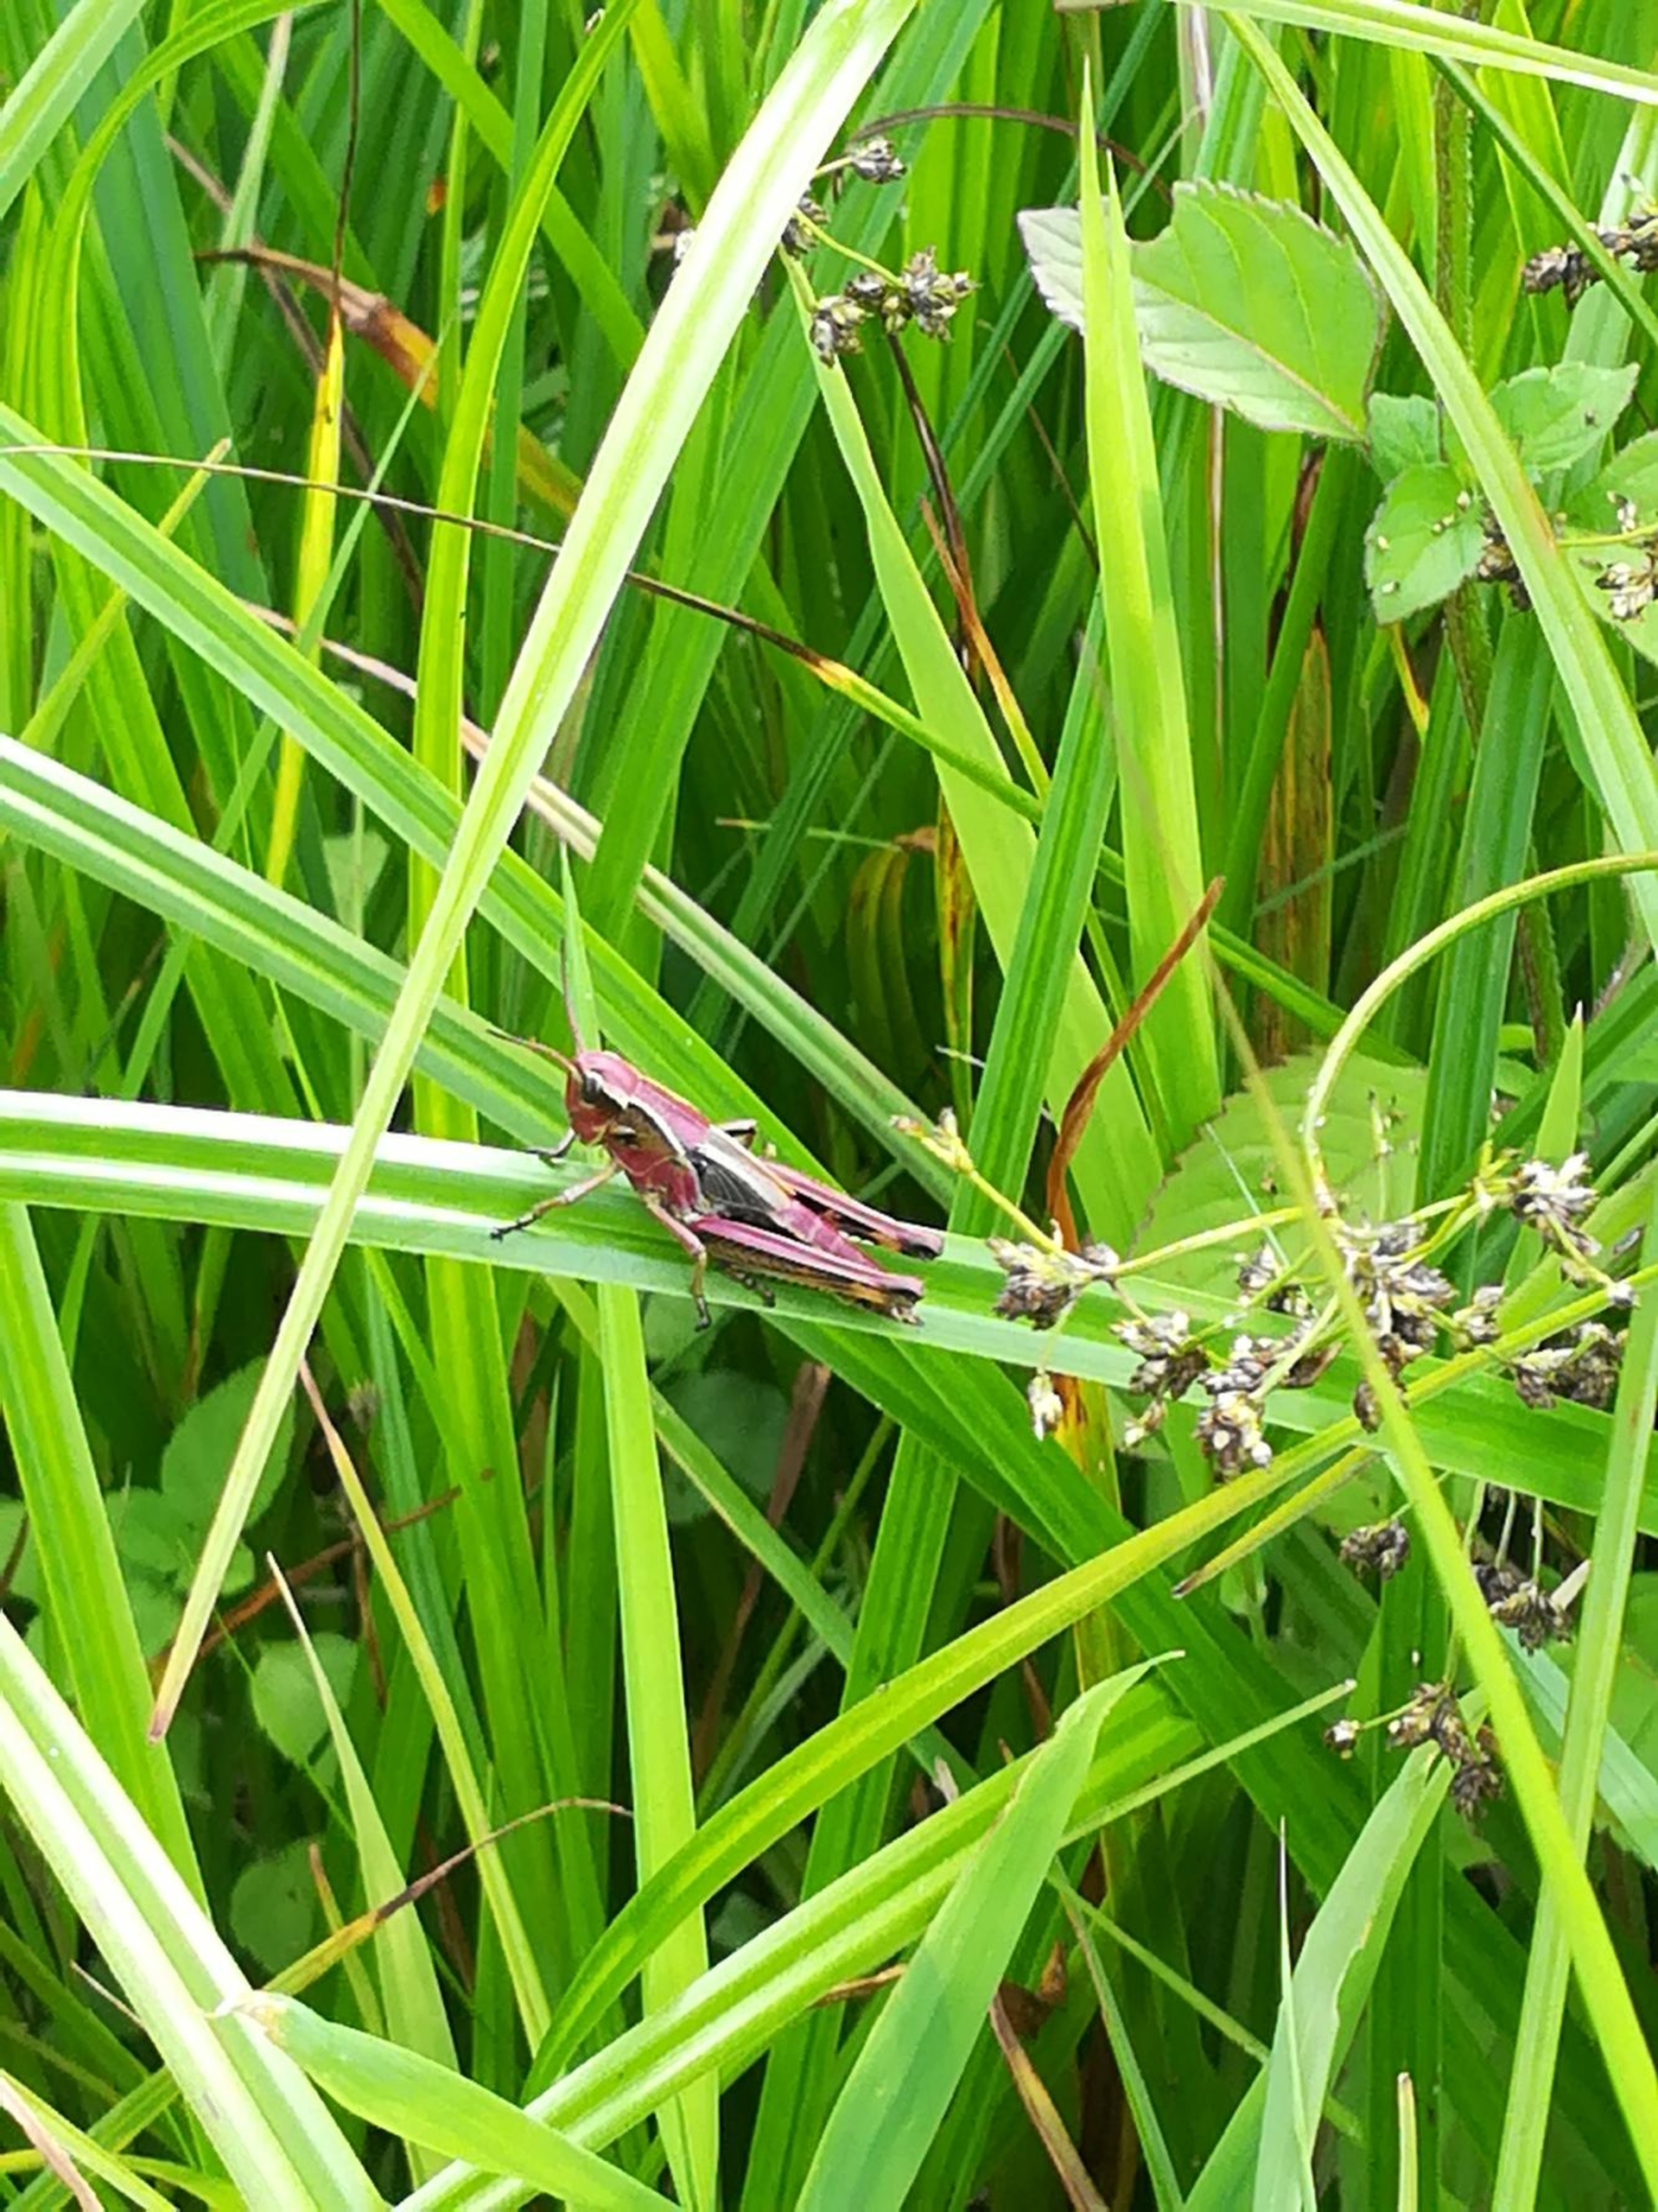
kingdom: Animalia
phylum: Arthropoda
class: Insecta
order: Orthoptera
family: Acrididae
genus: Stethophyma
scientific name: Stethophyma grossum
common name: Sumpgræshoppe
